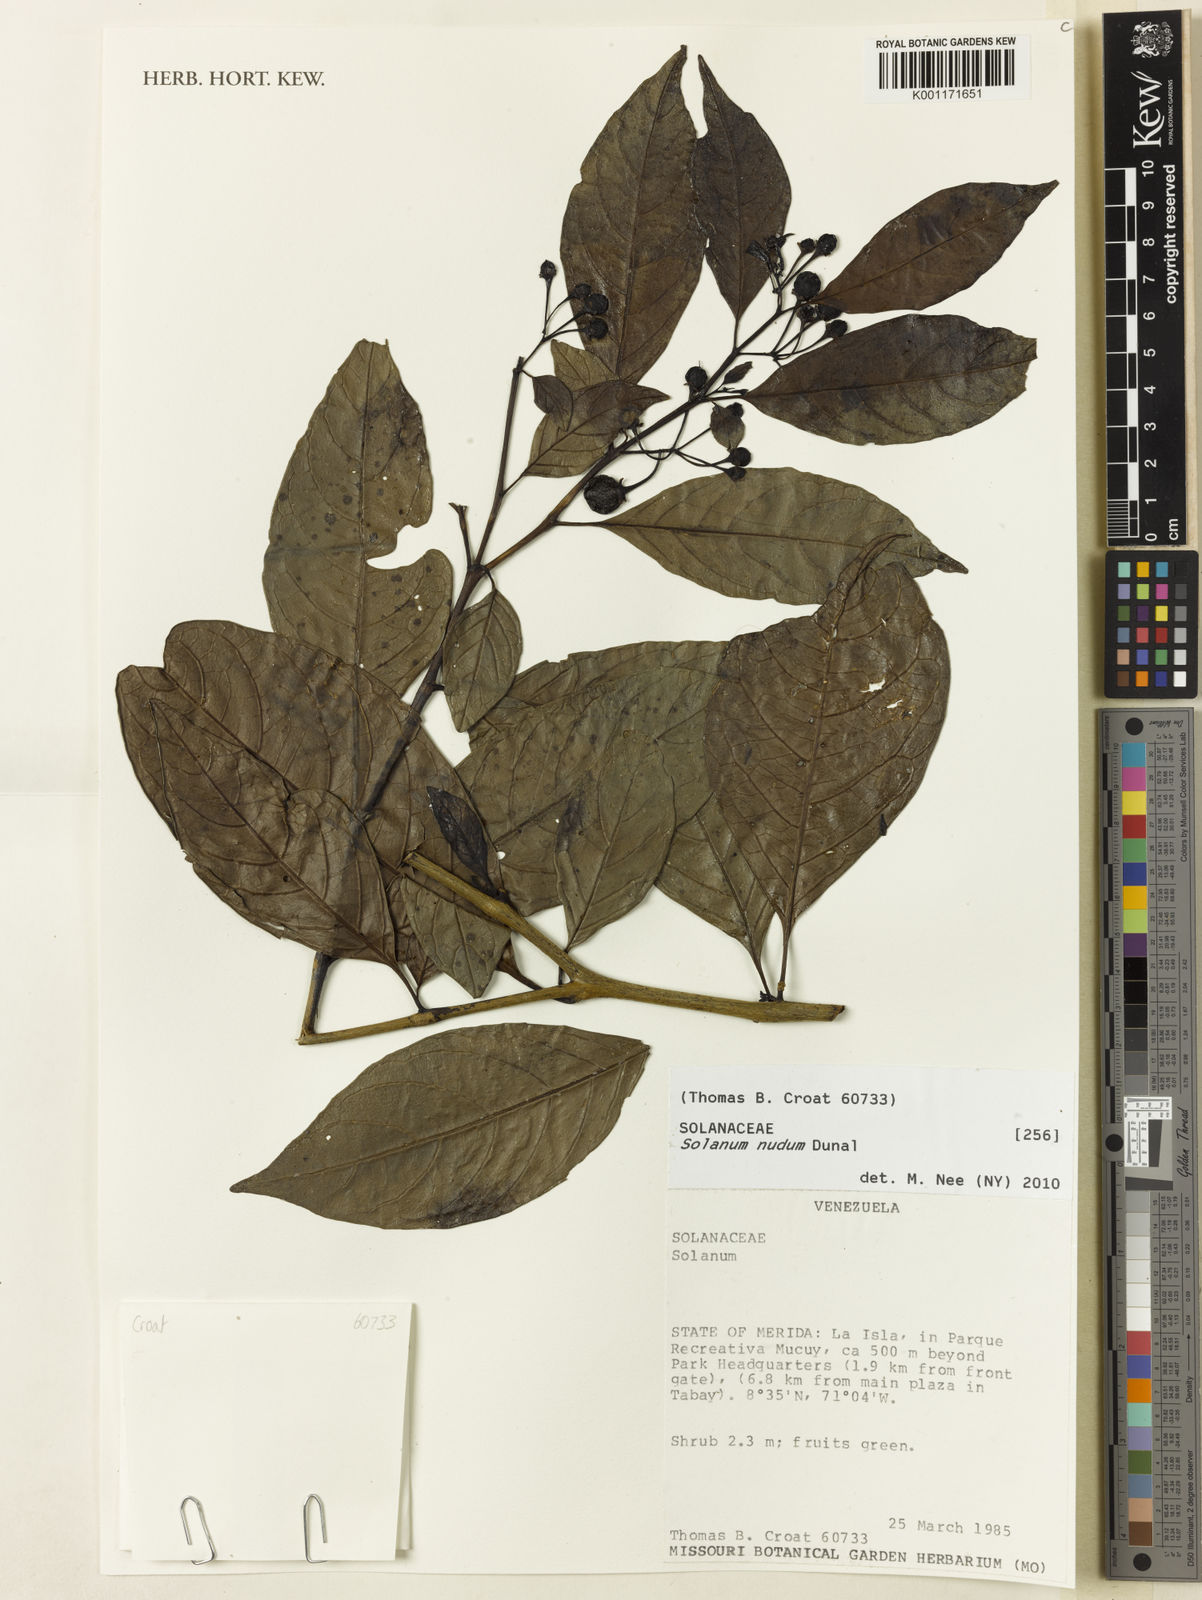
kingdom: Plantae
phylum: Tracheophyta
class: Magnoliopsida
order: Solanales
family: Solanaceae
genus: Solanum
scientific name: Solanum nudum
